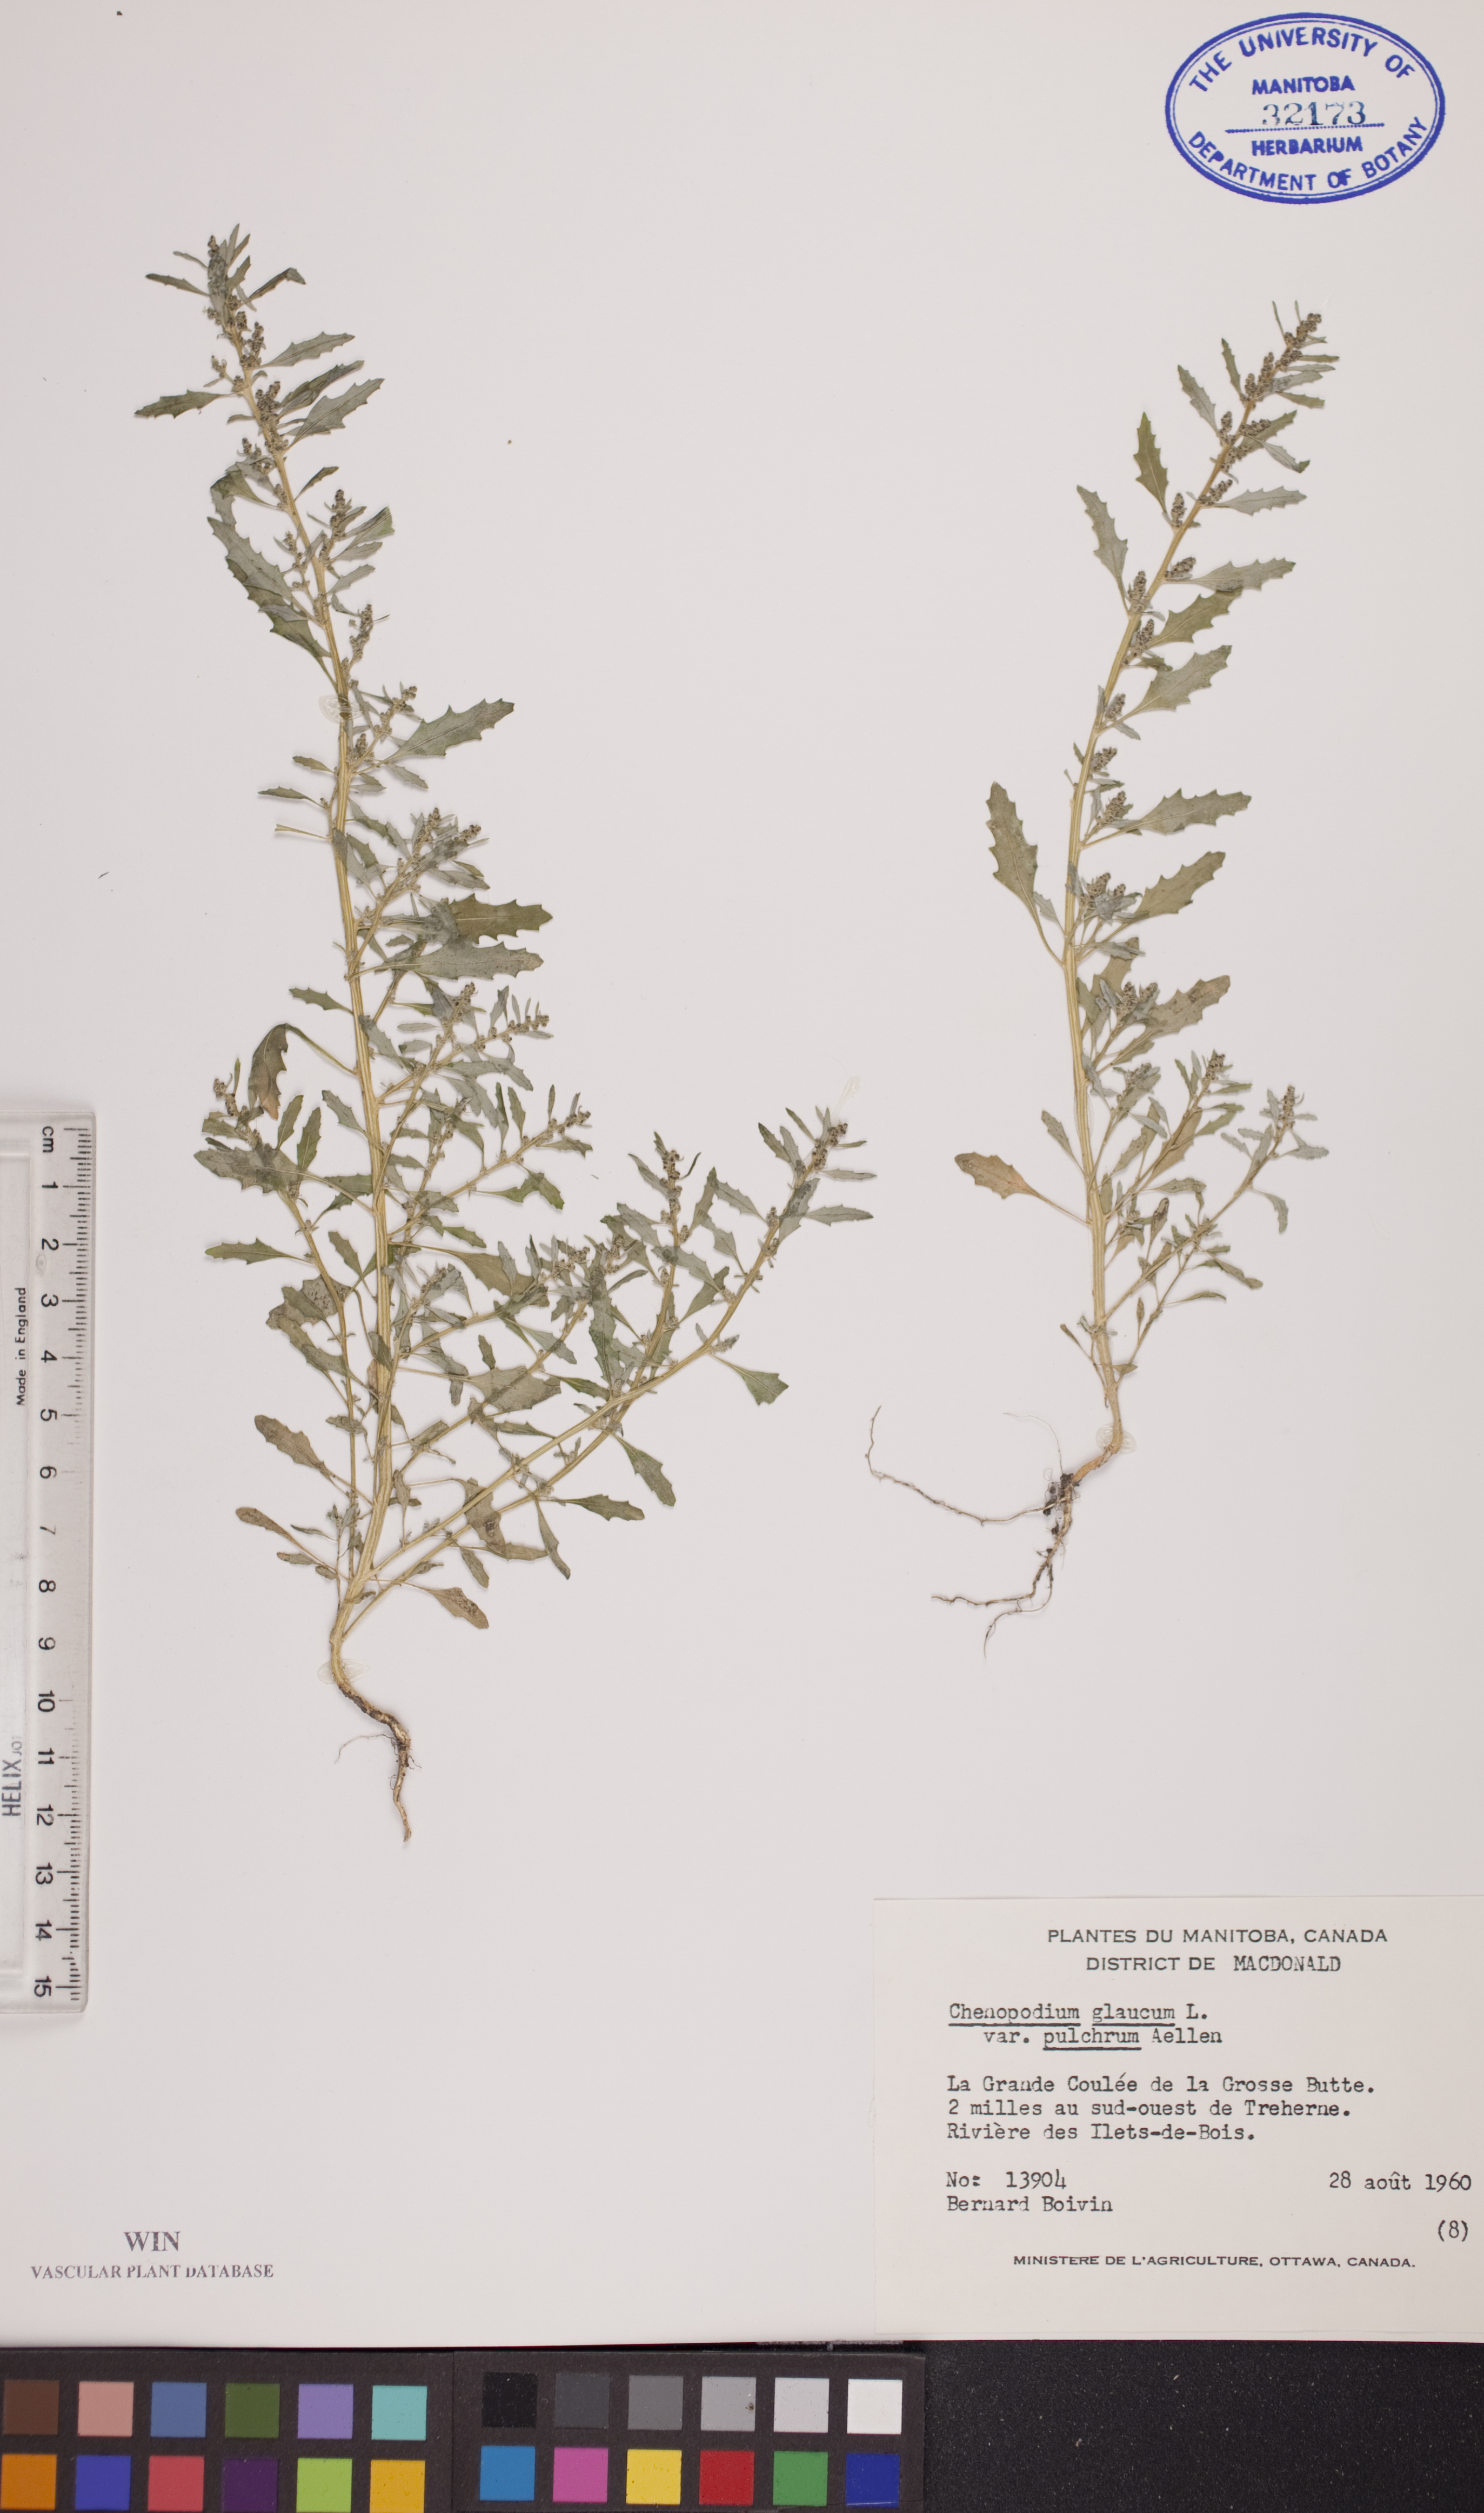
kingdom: Plantae
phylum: Tracheophyta
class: Magnoliopsida
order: Caryophyllales
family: Amaranthaceae
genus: Oxybasis
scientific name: Oxybasis salina
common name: Rocky mountain goosefoot
